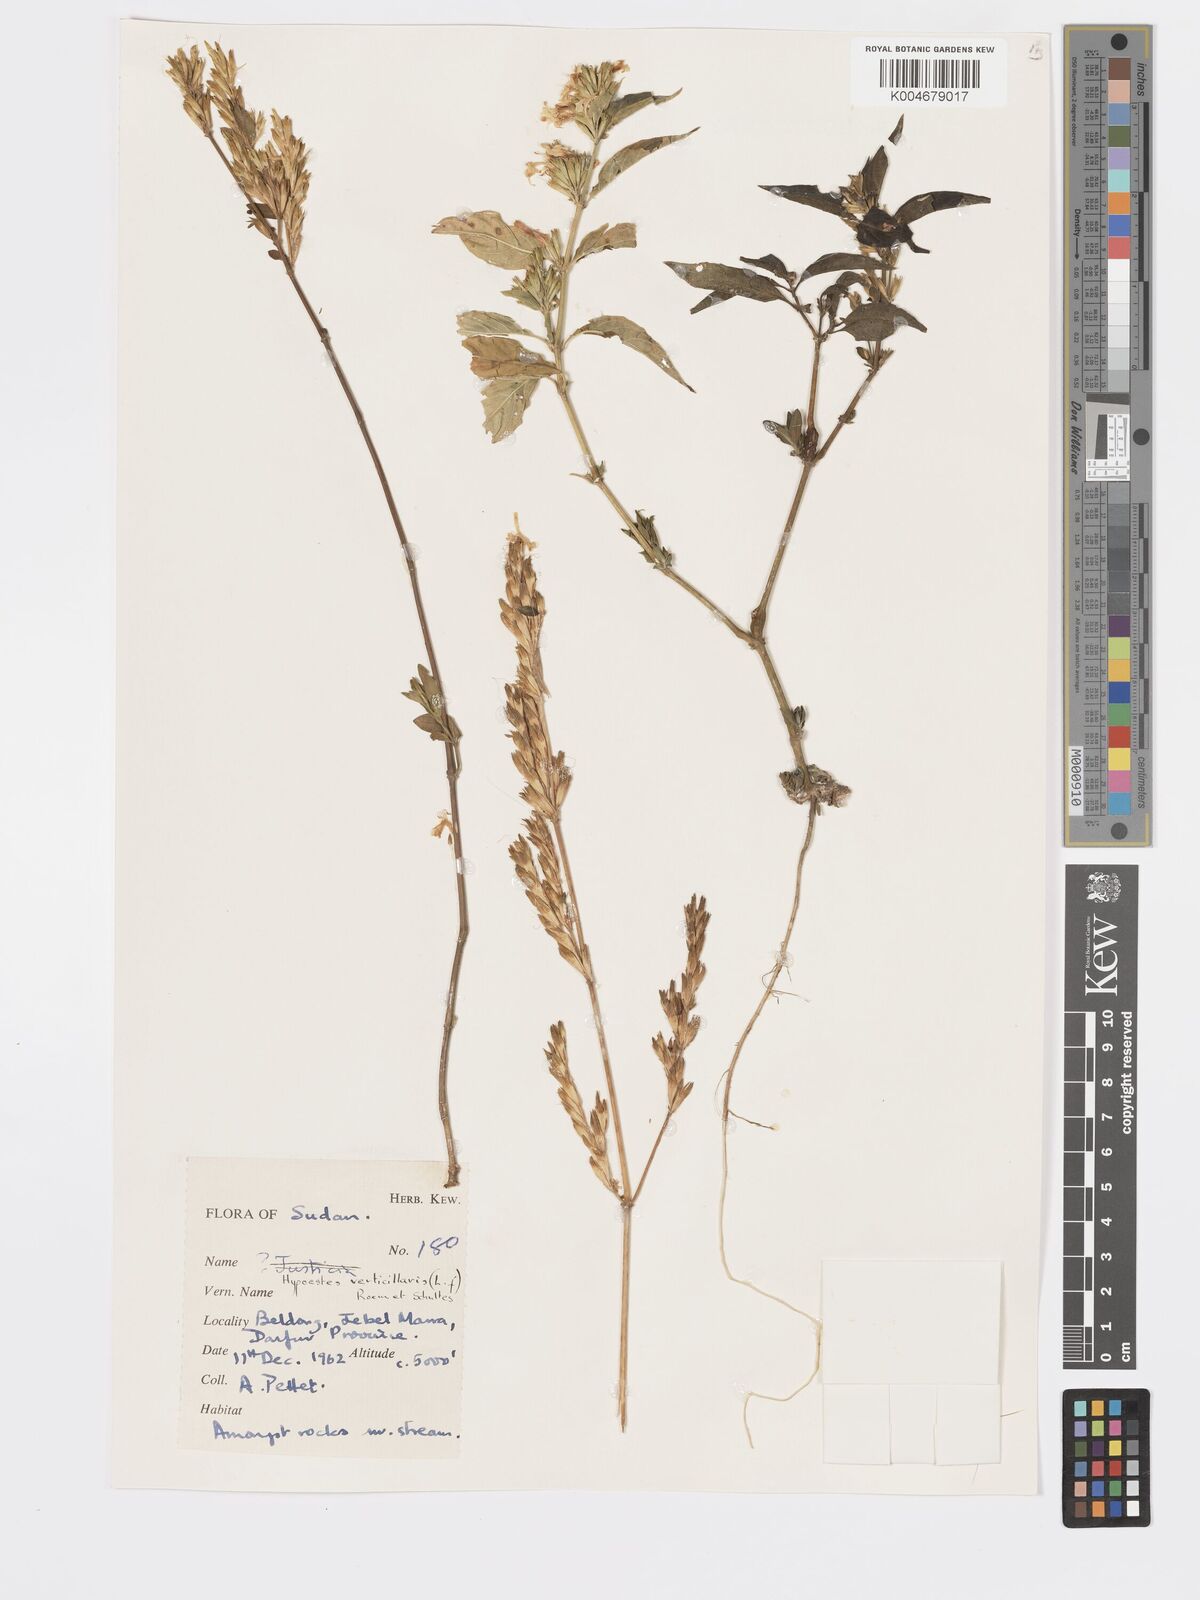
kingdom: Plantae
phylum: Tracheophyta
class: Magnoliopsida
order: Lamiales
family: Acanthaceae
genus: Hypoestes
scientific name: Hypoestes
